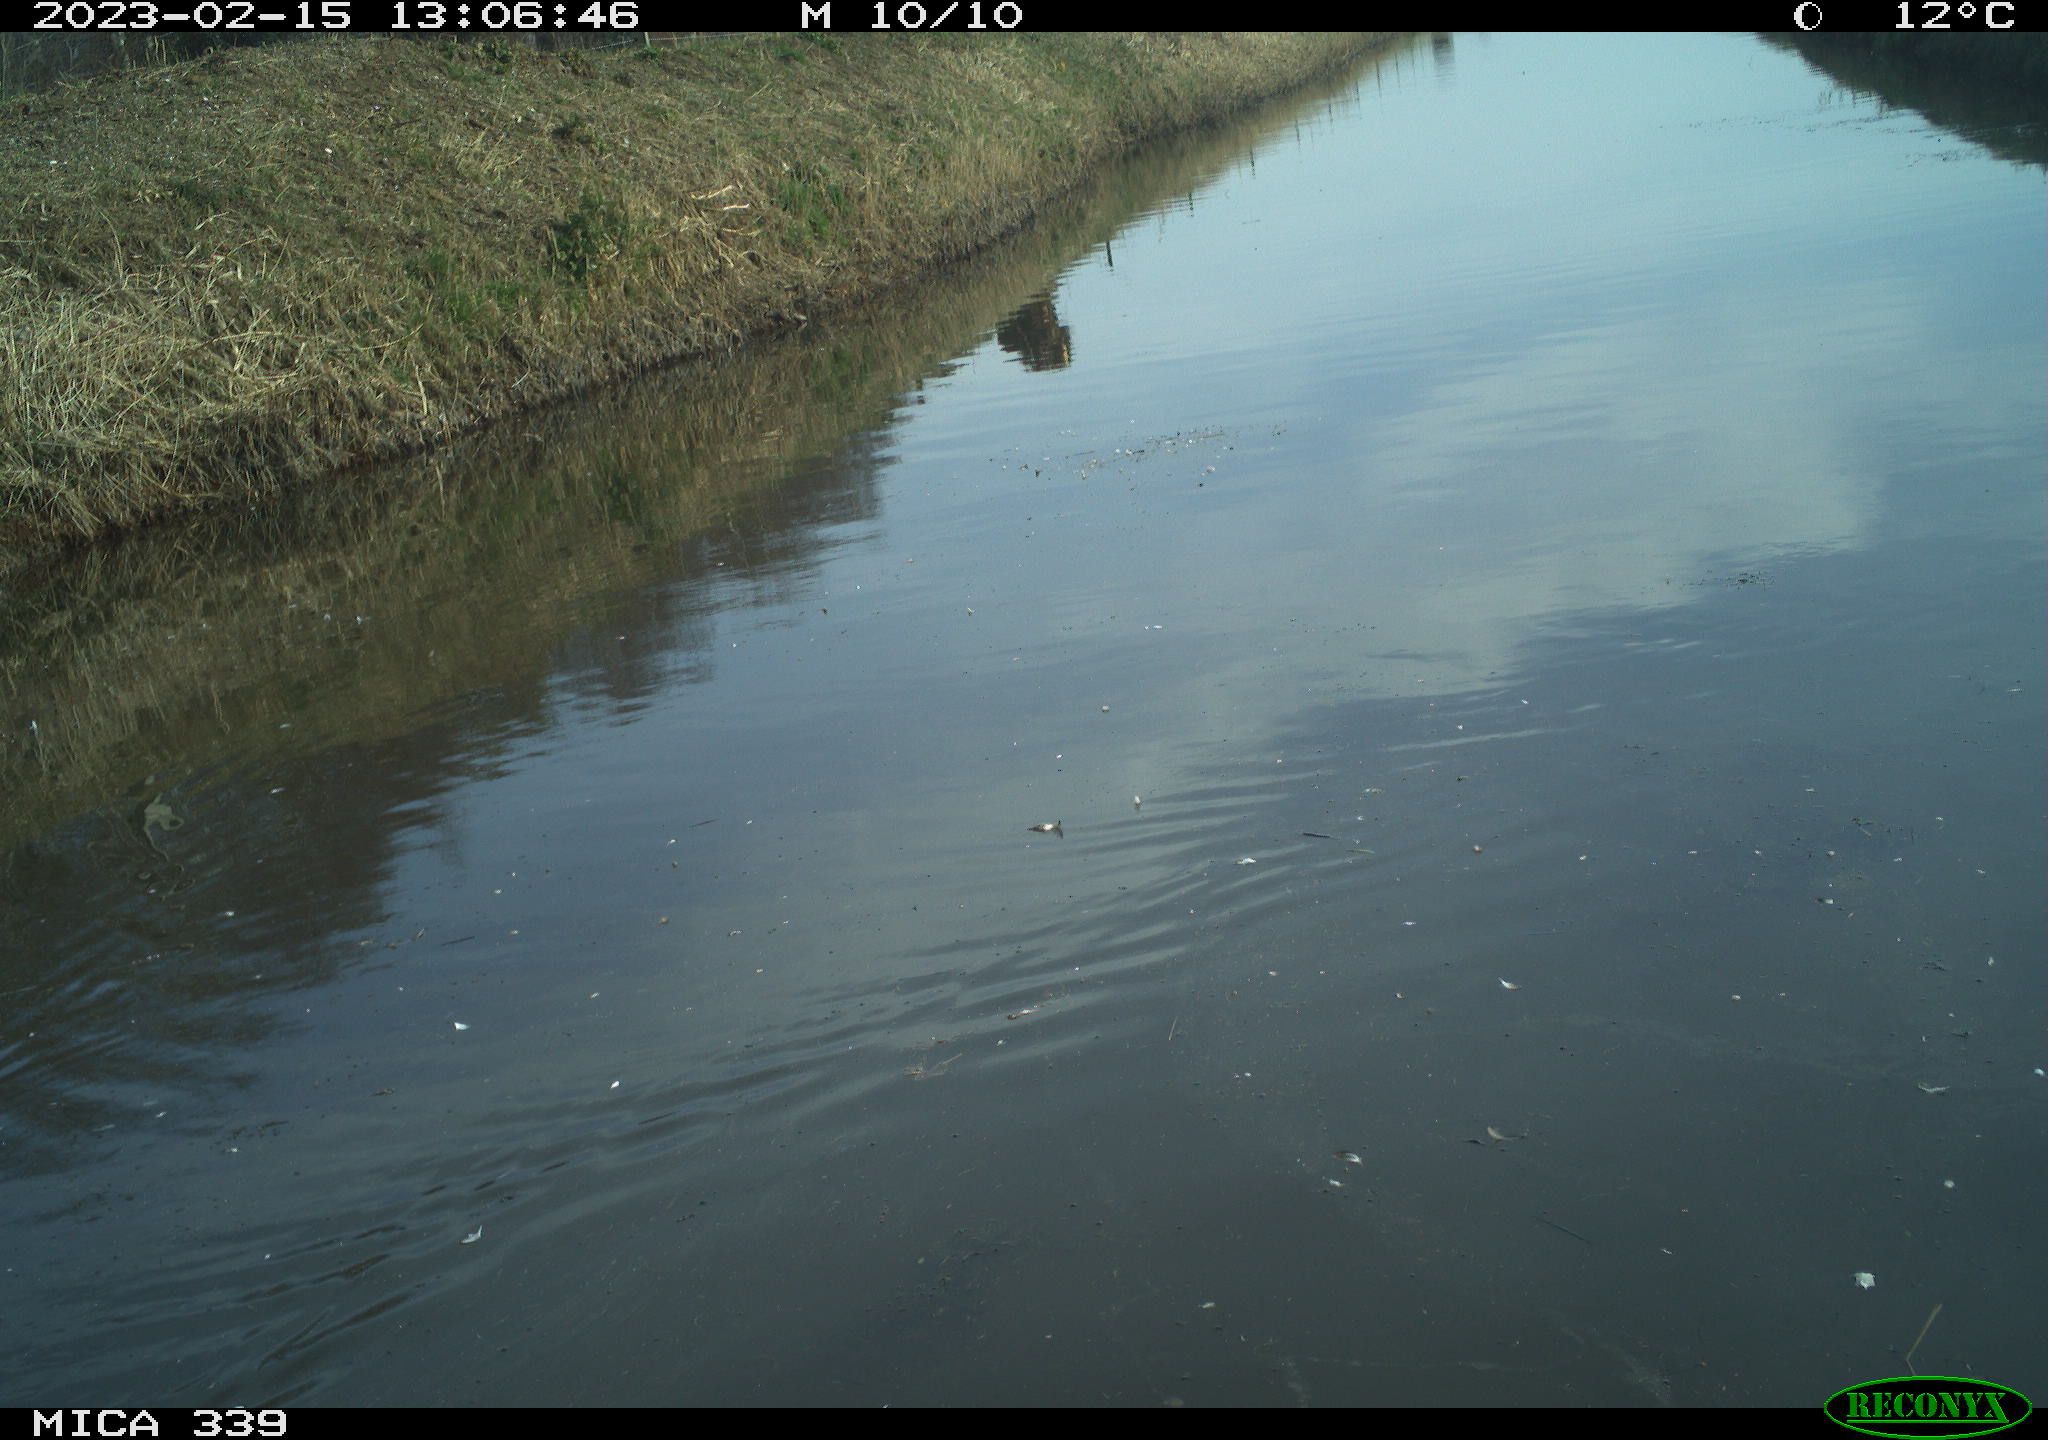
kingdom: Animalia
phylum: Chordata
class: Aves
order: Gruiformes
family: Rallidae
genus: Gallinula
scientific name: Gallinula chloropus
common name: Common moorhen
